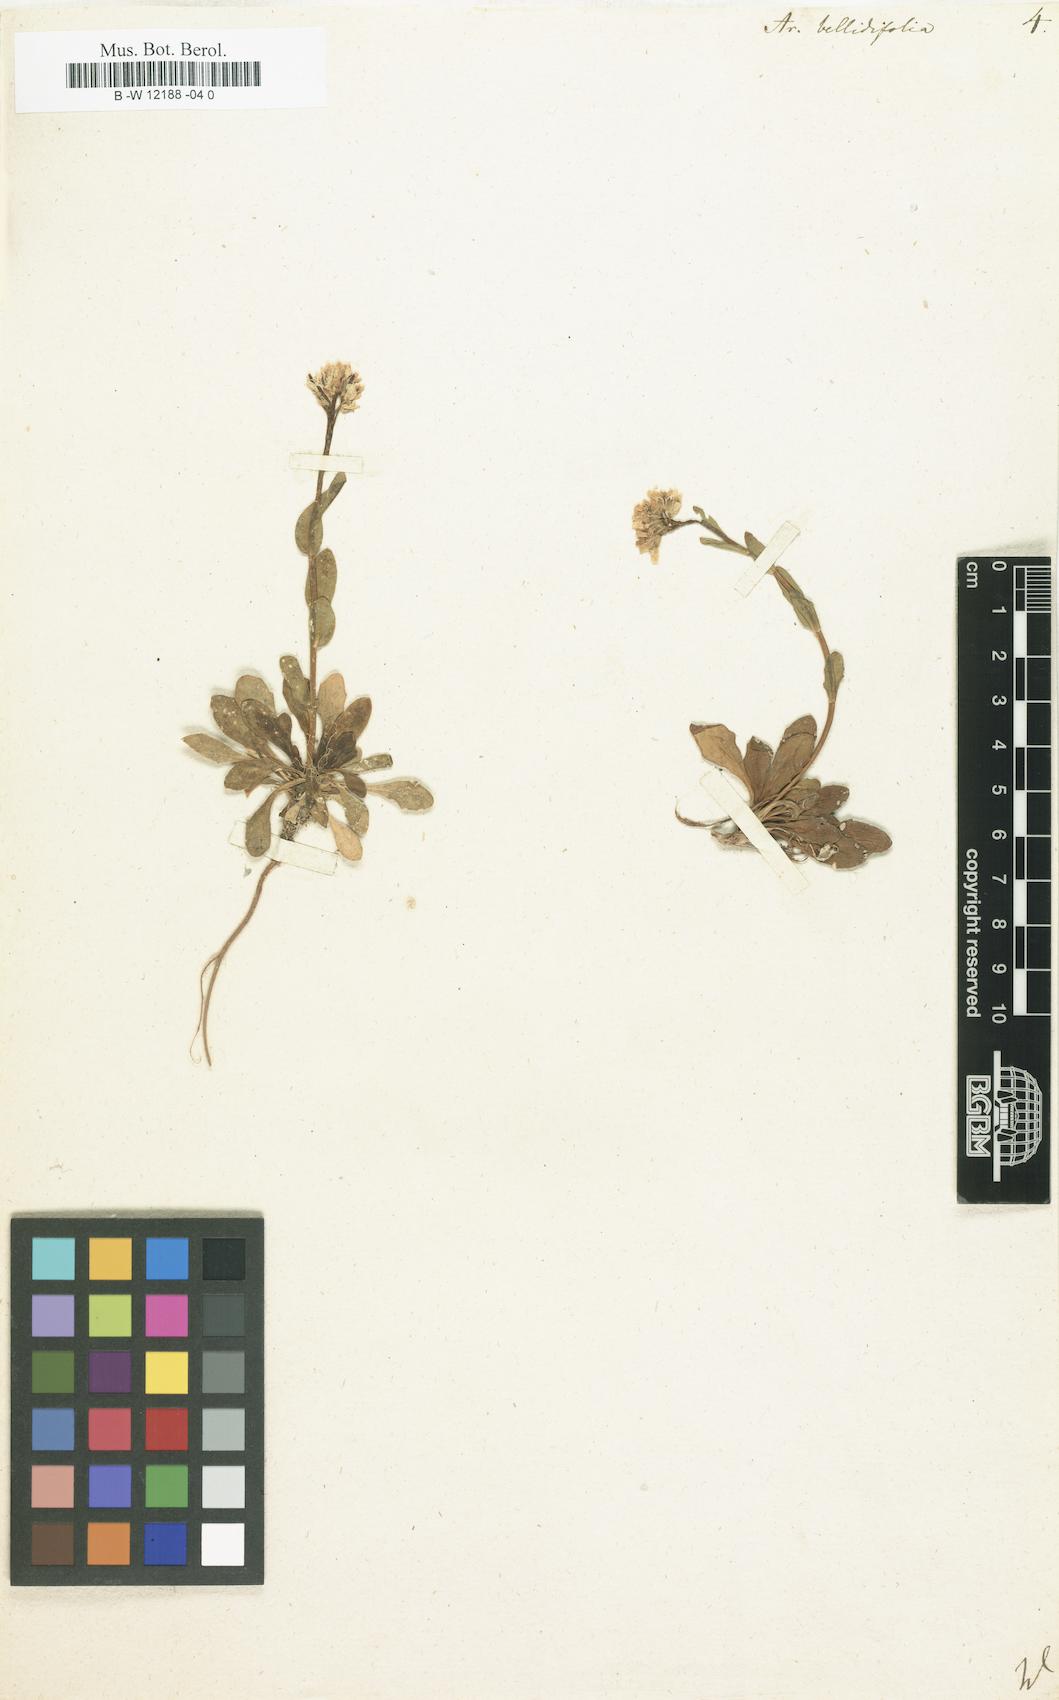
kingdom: Plantae
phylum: Tracheophyta
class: Magnoliopsida
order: Brassicales
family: Brassicaceae
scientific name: Brassicaceae
